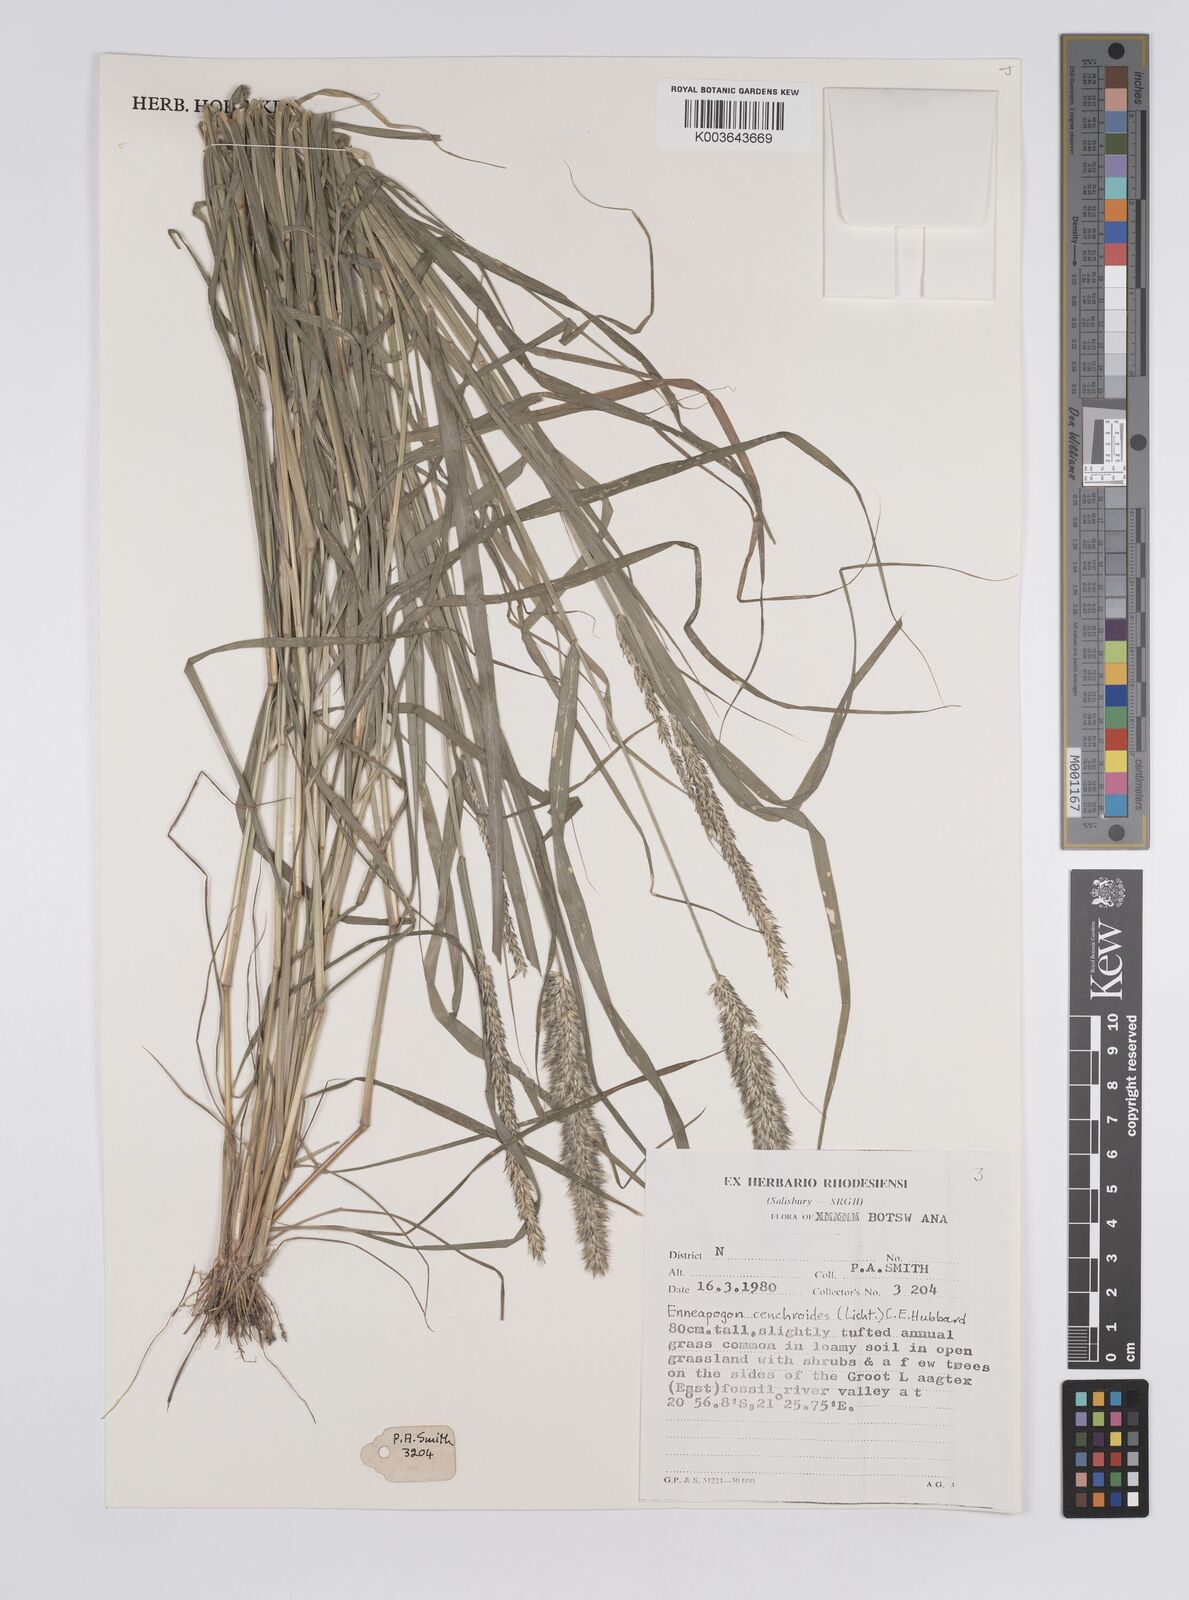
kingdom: Plantae
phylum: Tracheophyta
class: Liliopsida
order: Poales
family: Poaceae
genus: Enneapogon
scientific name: Enneapogon cenchroides
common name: Soft feather pappusgrass
